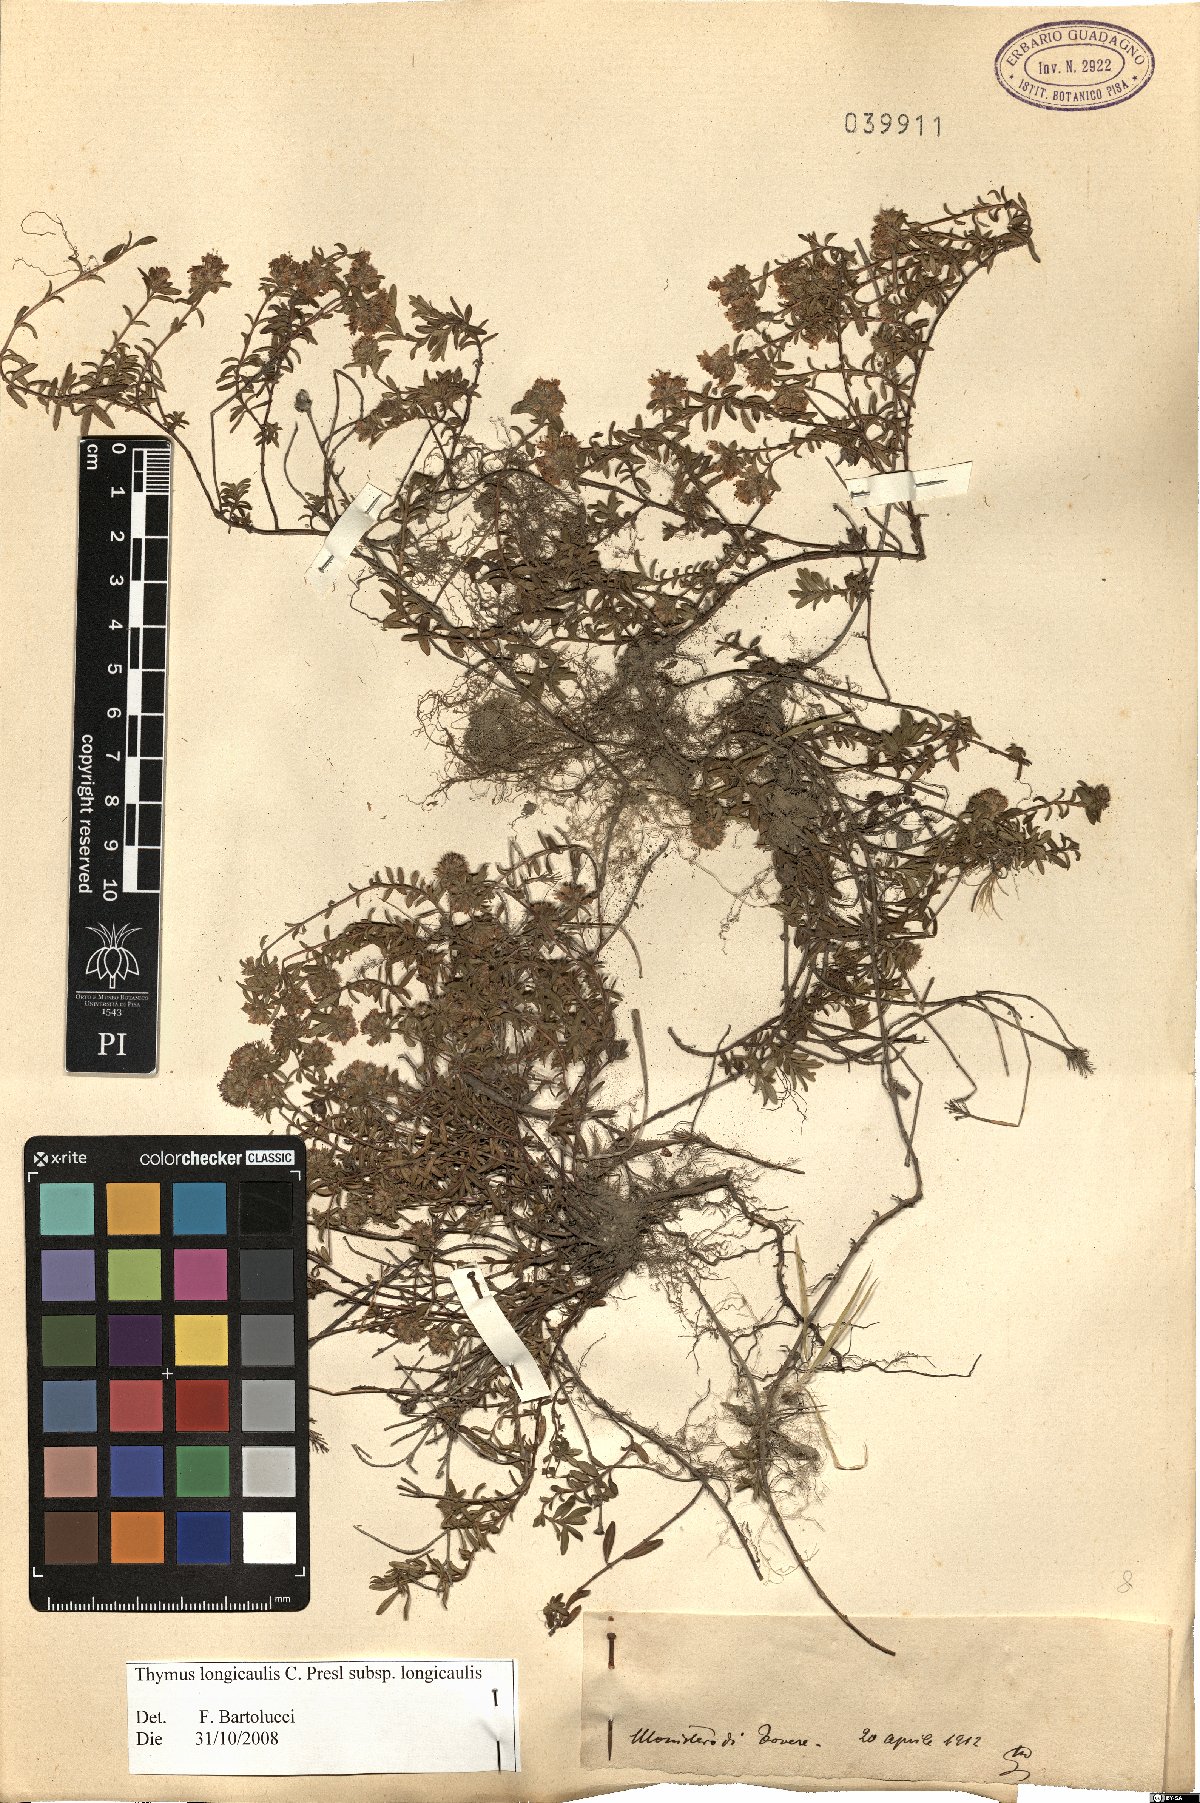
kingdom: Plantae
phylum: Tracheophyta
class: Magnoliopsida
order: Lamiales
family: Lamiaceae
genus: Thymus
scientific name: Thymus longicaulis
